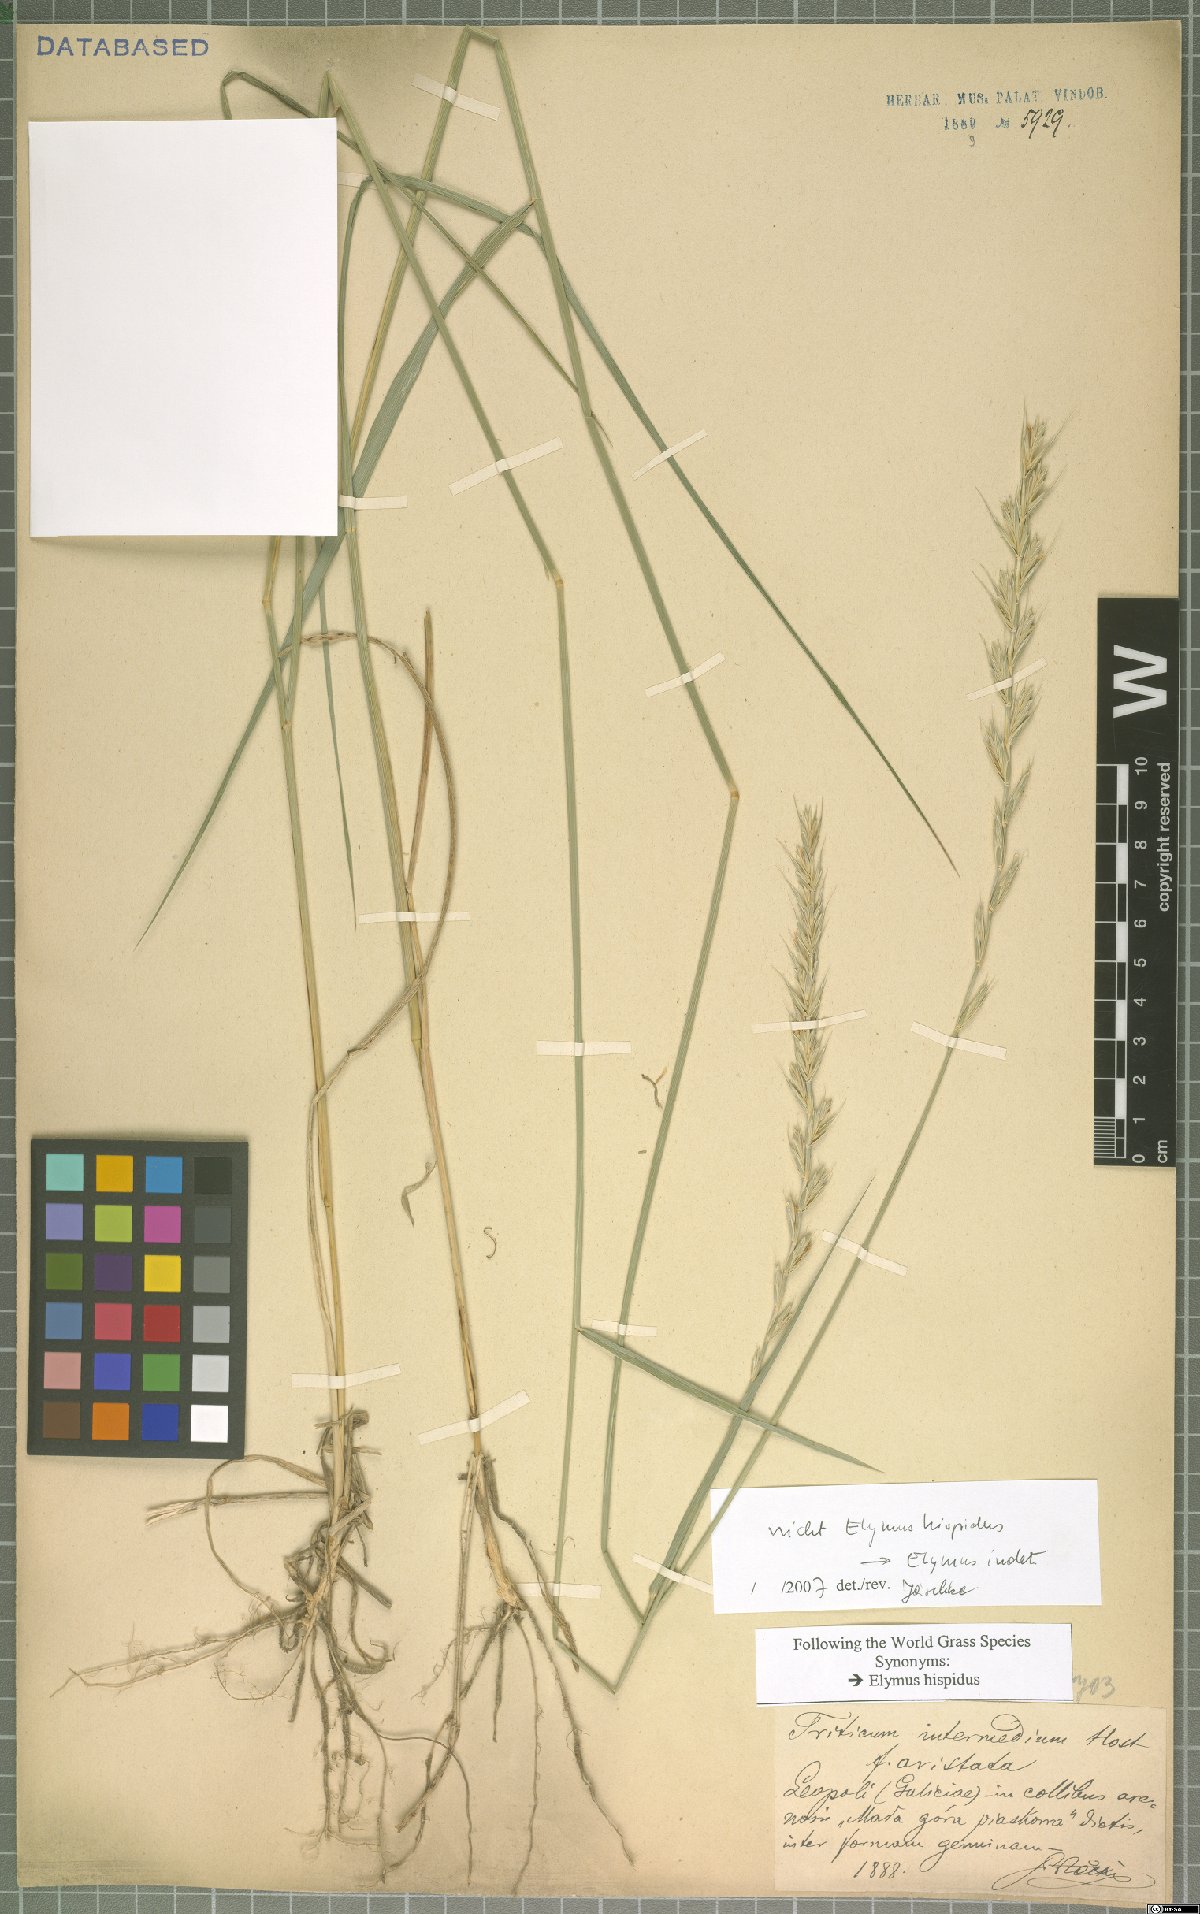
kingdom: Plantae
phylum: Tracheophyta
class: Liliopsida
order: Poales
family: Poaceae
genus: Elymus
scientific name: Elymus
